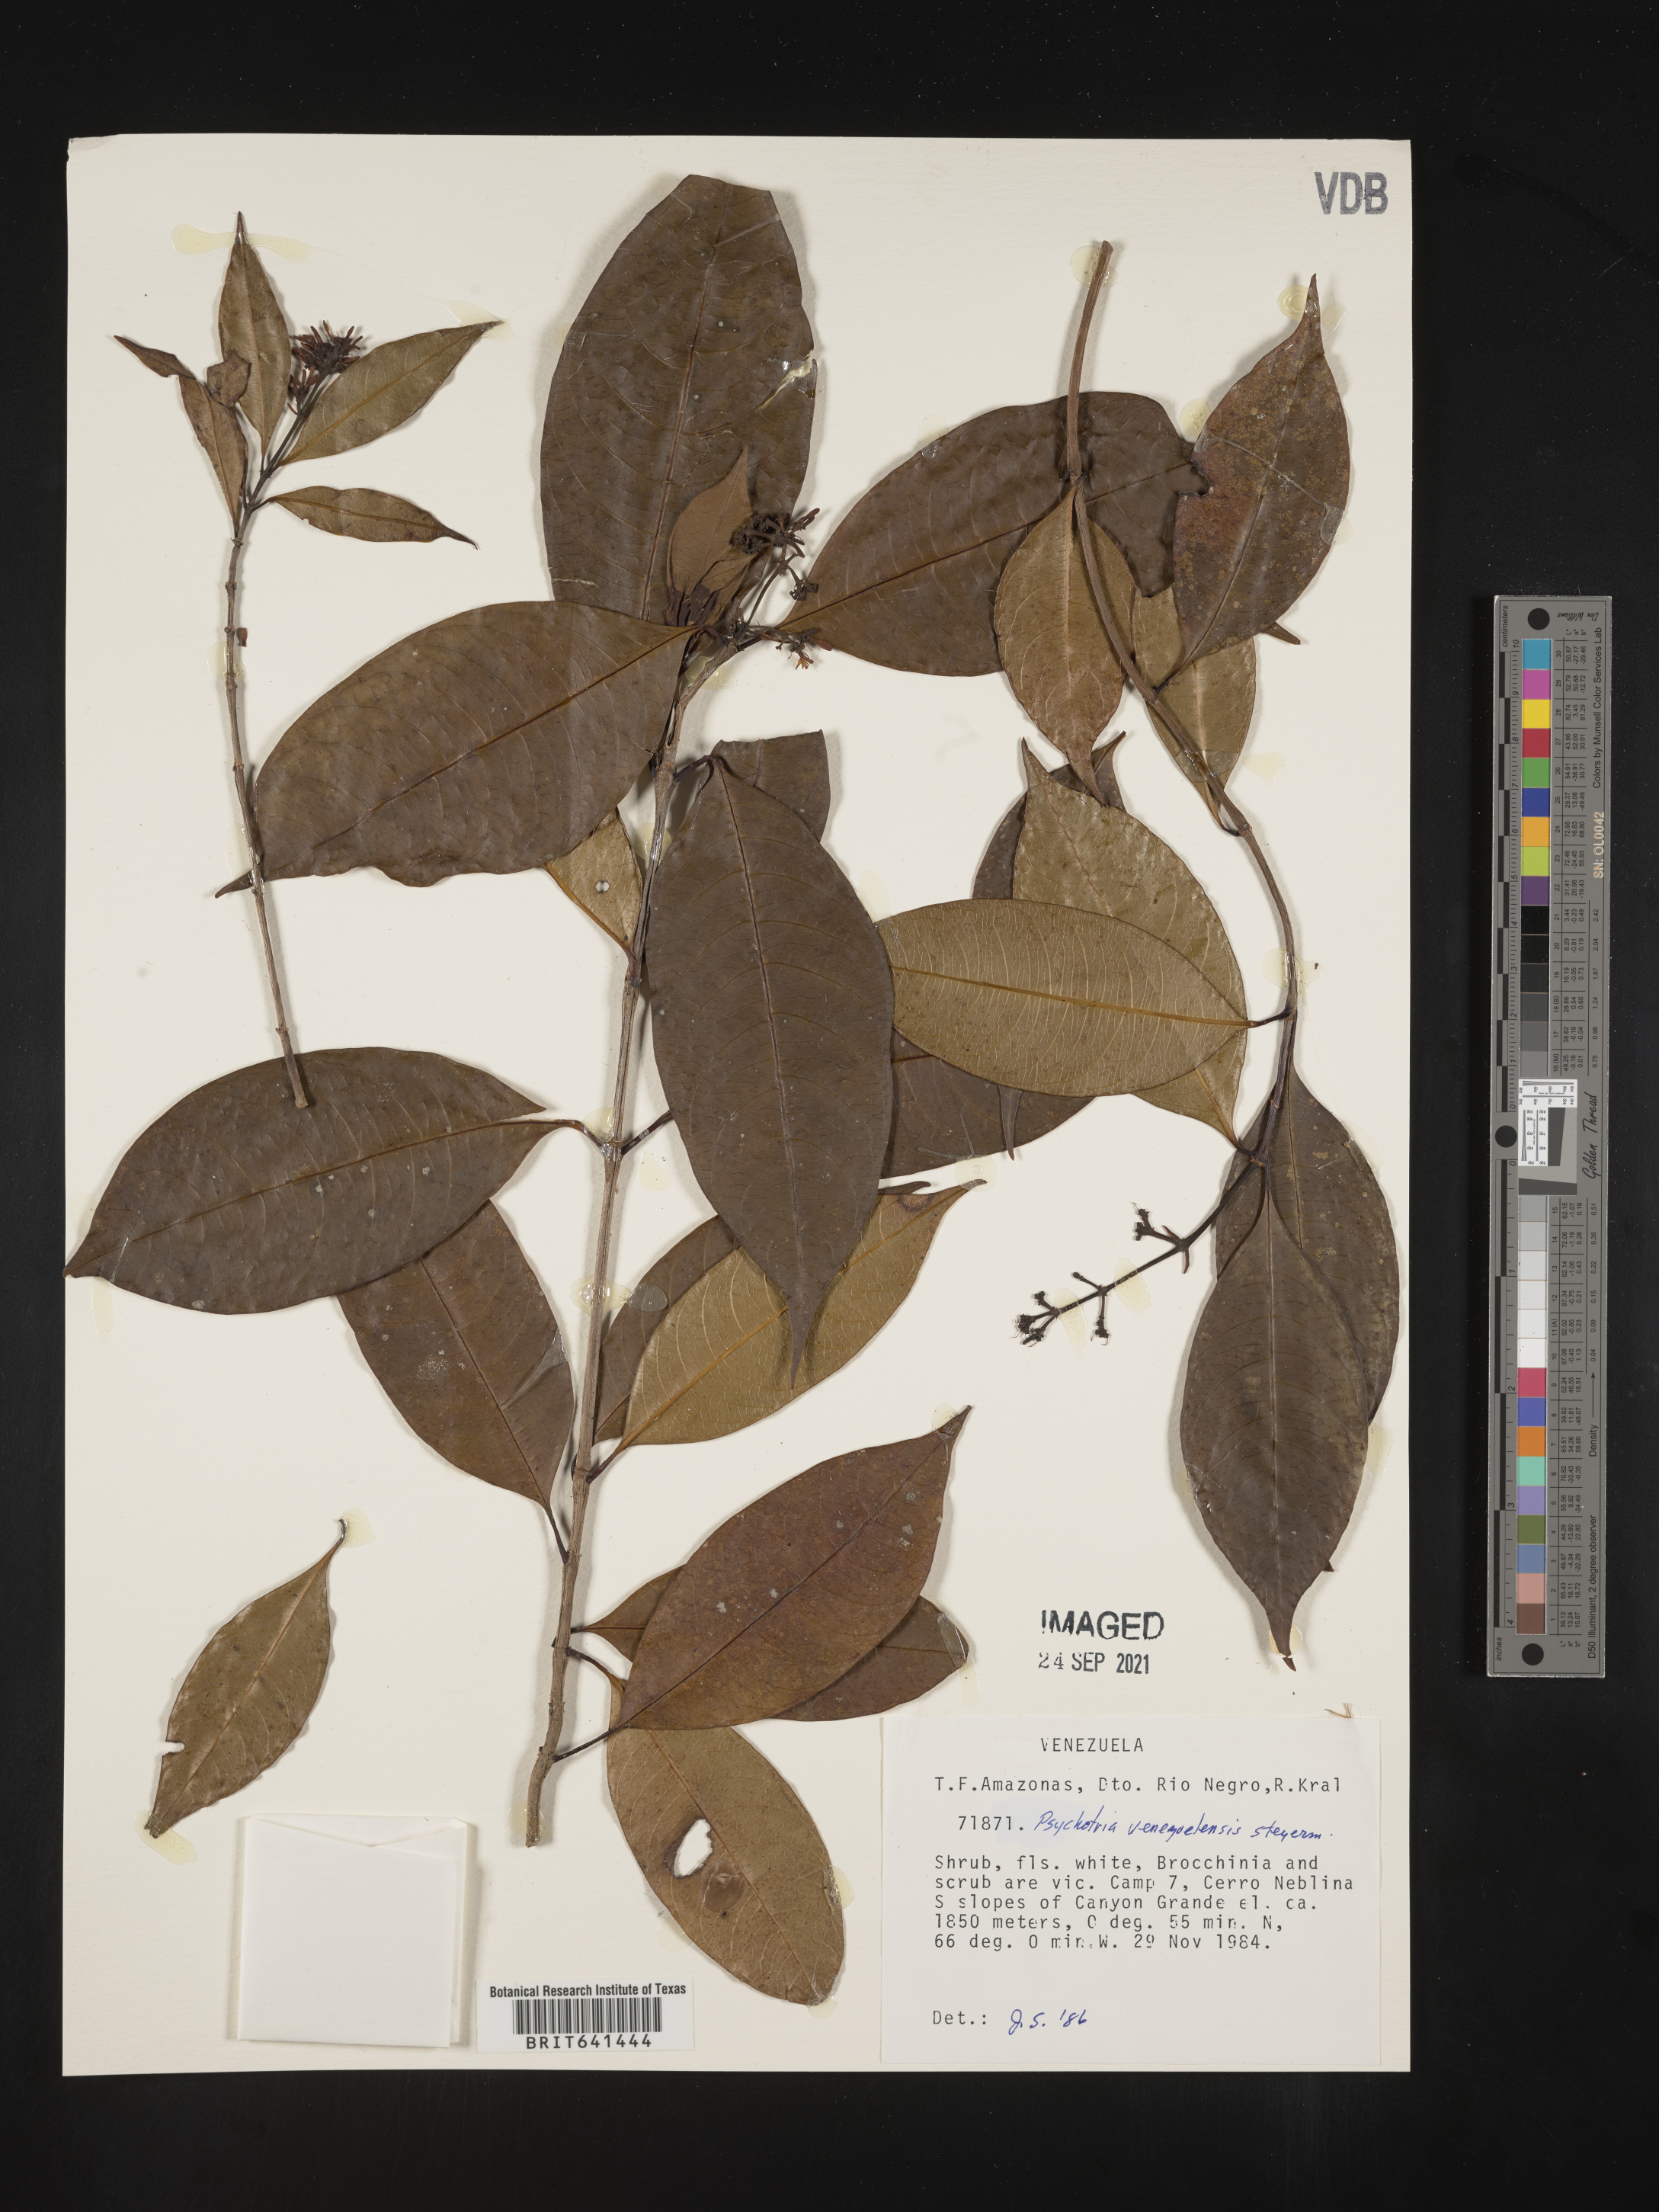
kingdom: Plantae
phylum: Tracheophyta
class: Magnoliopsida
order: Gentianales
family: Rubiaceae
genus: Psychotria
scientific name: Psychotria
